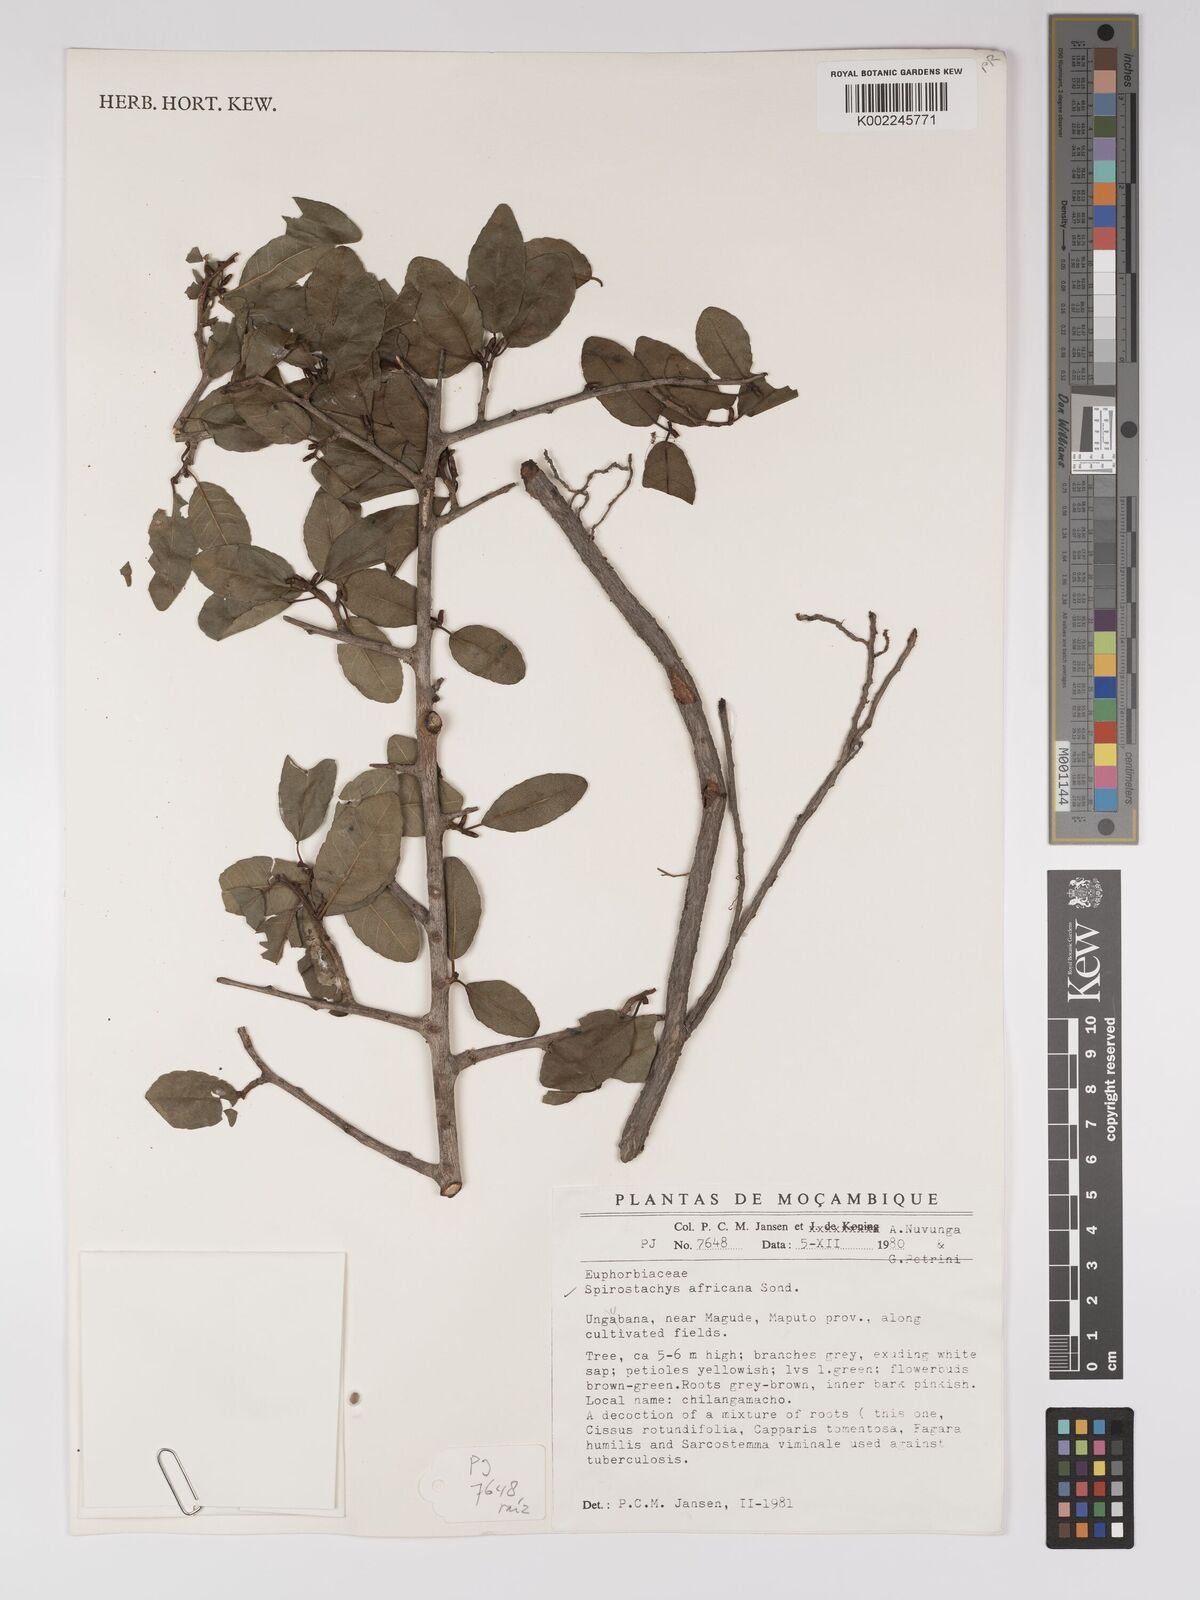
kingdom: Plantae
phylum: Tracheophyta
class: Magnoliopsida
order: Malpighiales
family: Euphorbiaceae
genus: Spirostachys
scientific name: Spirostachys africana
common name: Tamboti
